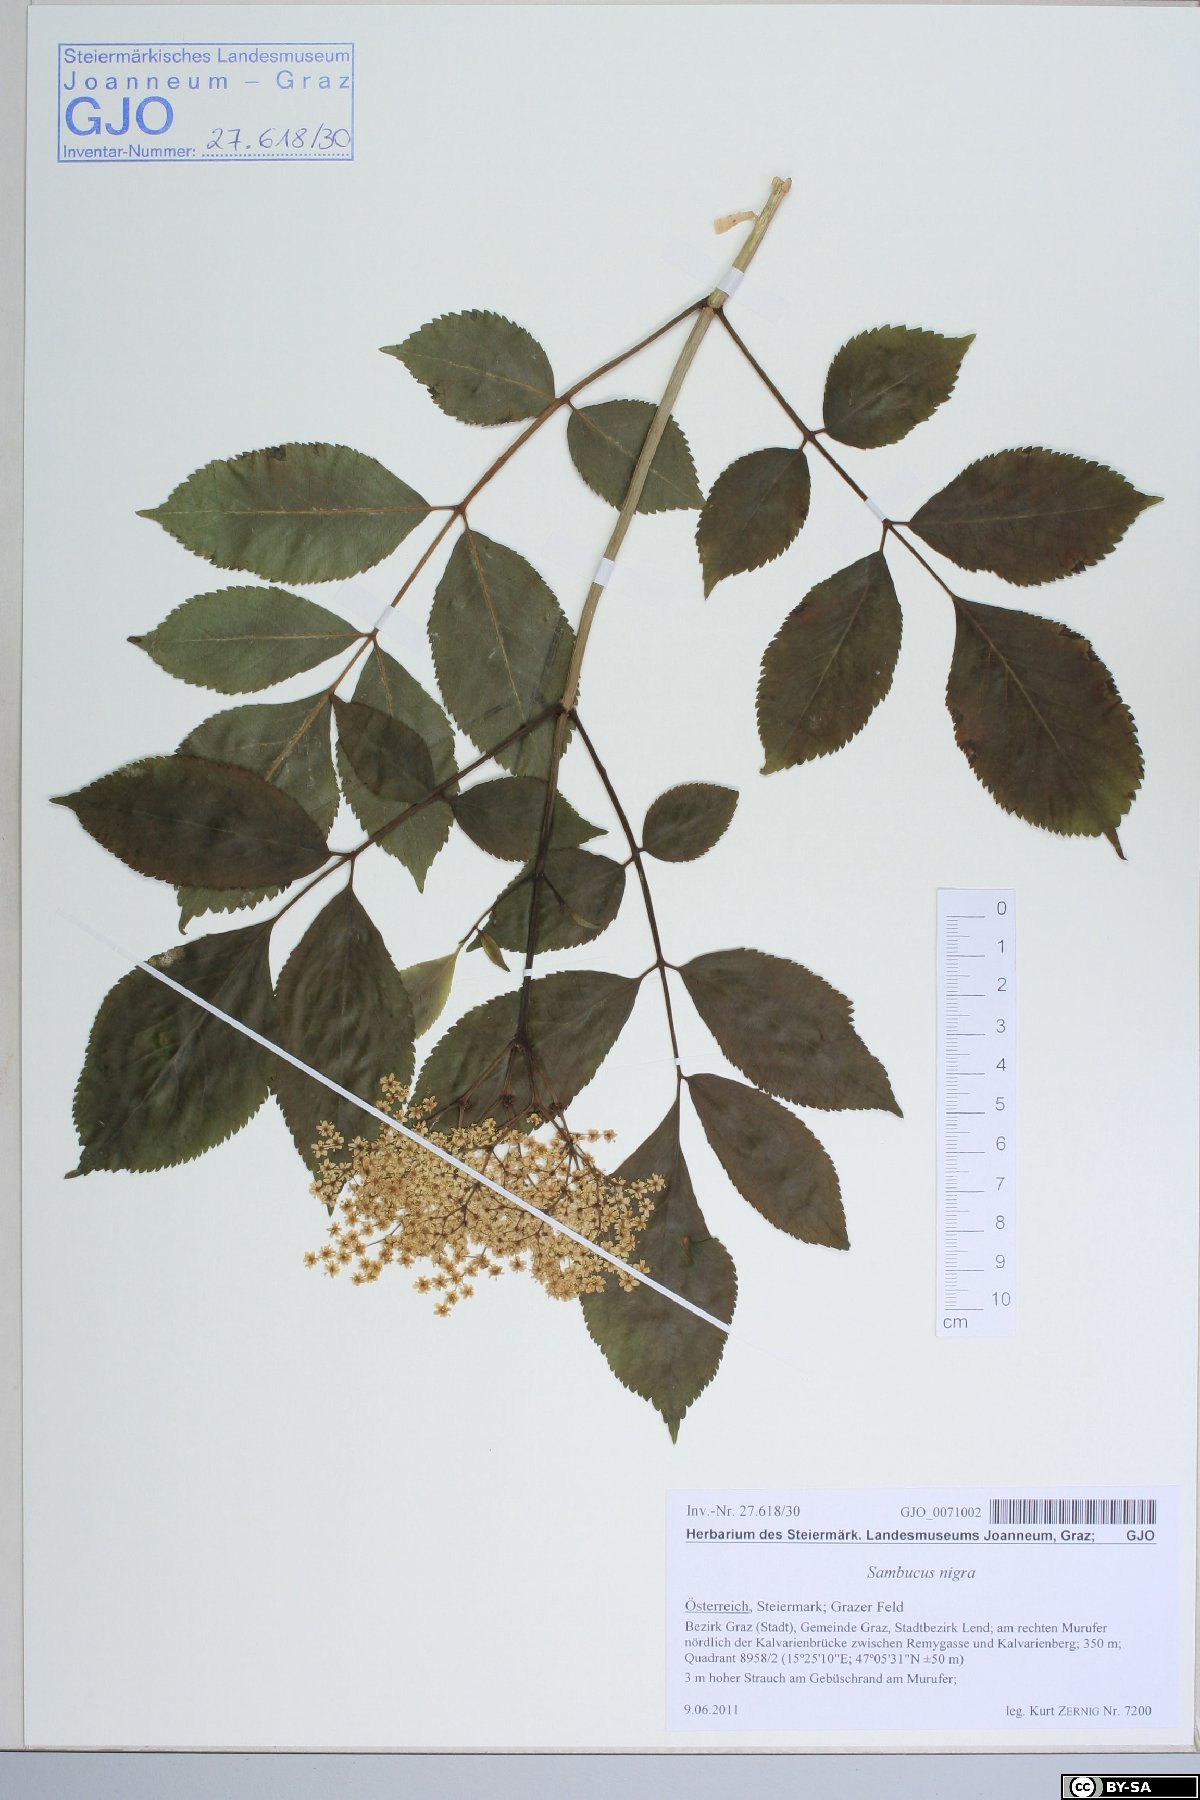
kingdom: Plantae
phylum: Tracheophyta
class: Magnoliopsida
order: Dipsacales
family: Viburnaceae
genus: Sambucus
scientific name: Sambucus nigra
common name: Elder
